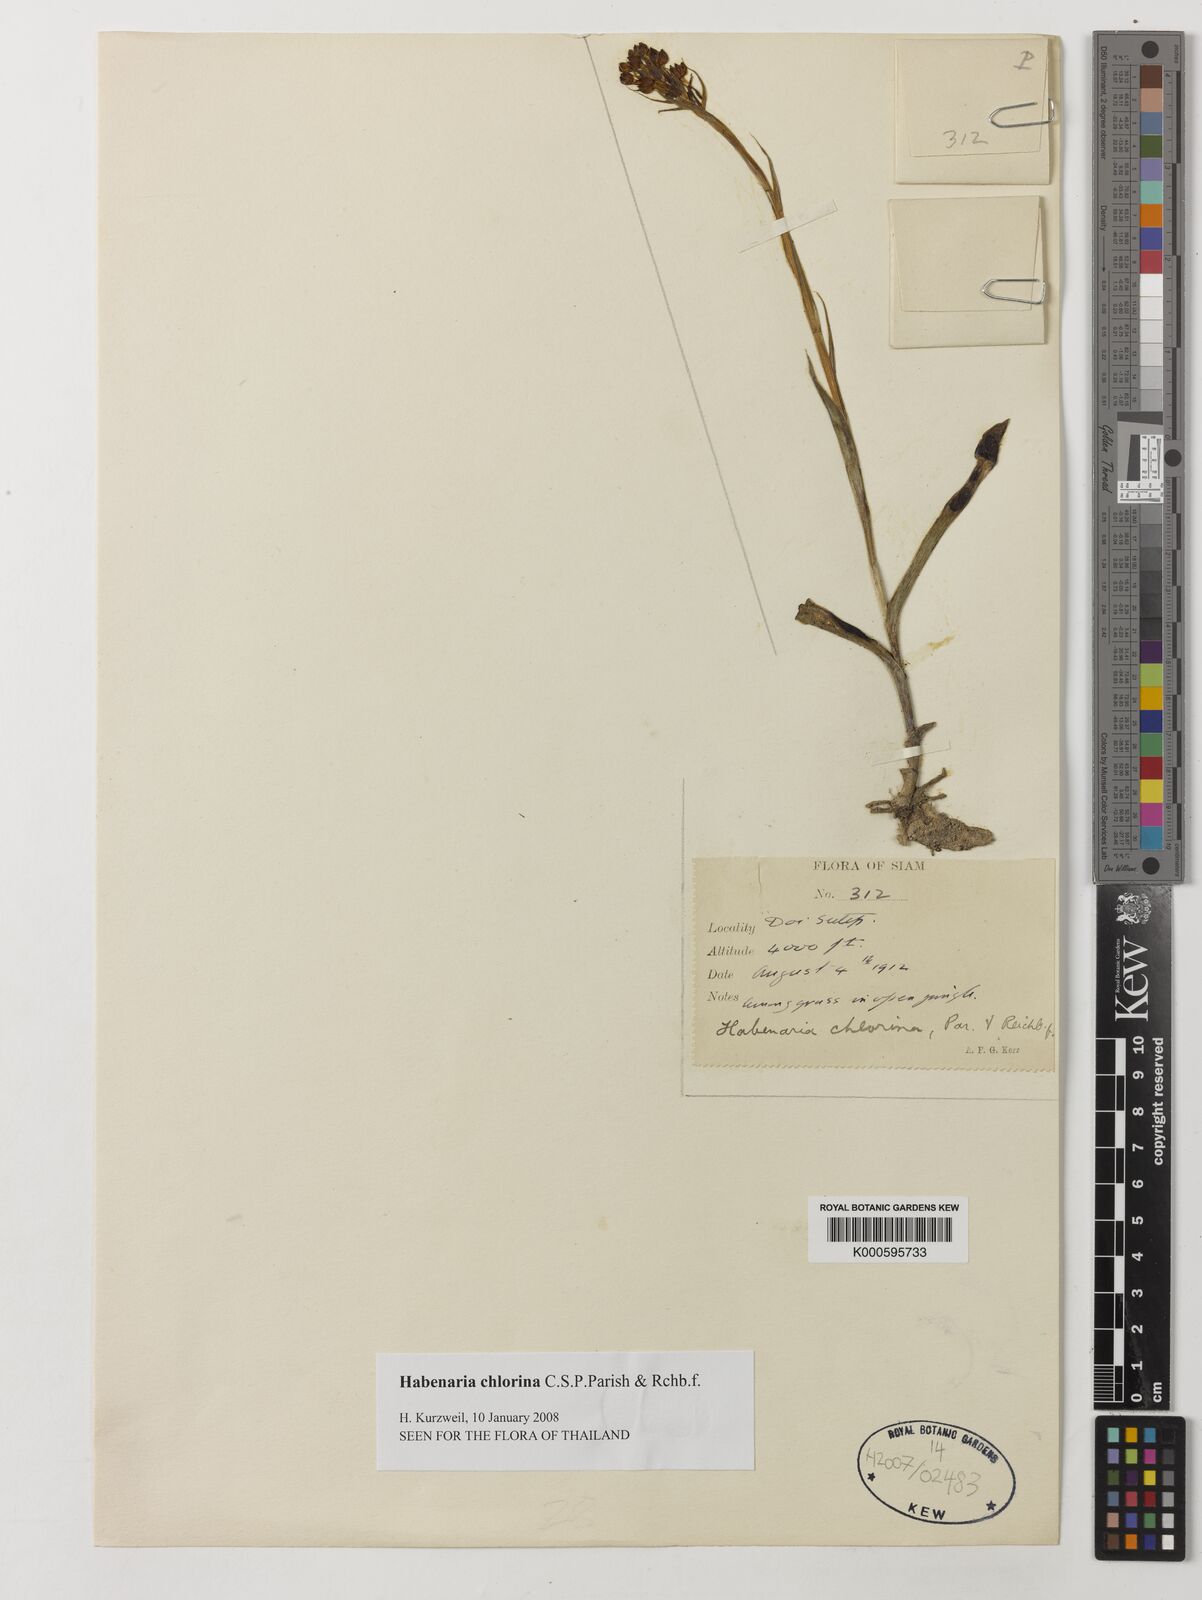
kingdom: Plantae
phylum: Tracheophyta
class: Liliopsida
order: Asparagales
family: Orchidaceae
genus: Habenaria
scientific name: Habenaria chlorina
